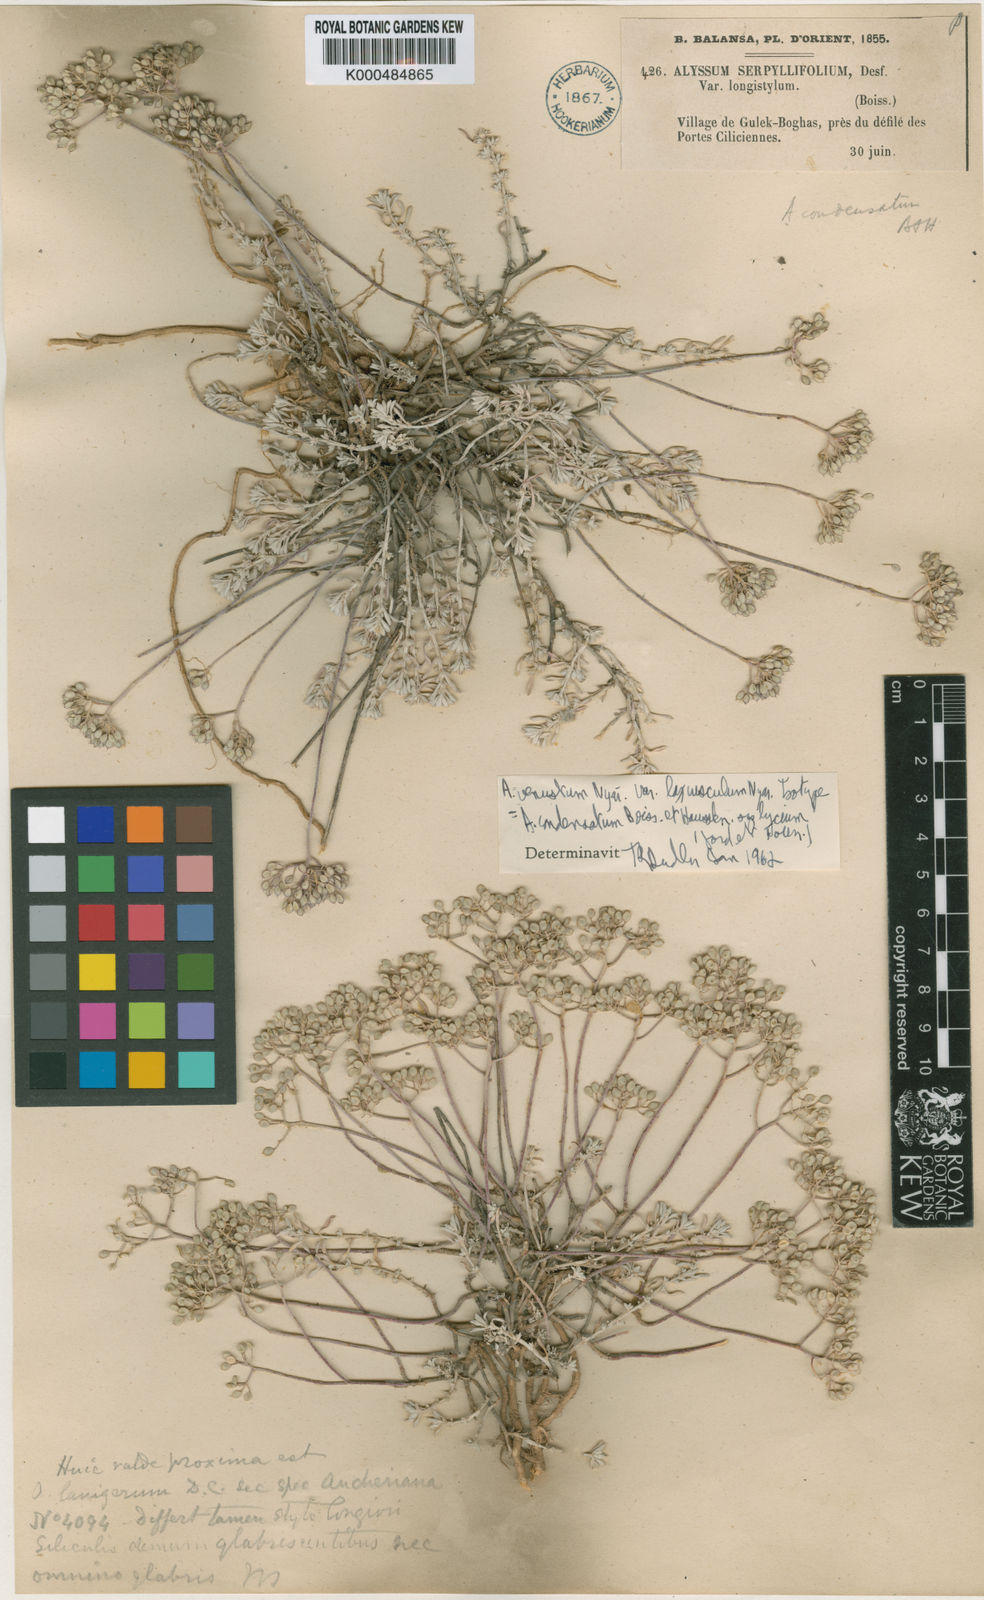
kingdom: Plantae
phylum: Tracheophyta
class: Magnoliopsida
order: Brassicales
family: Brassicaceae
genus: Odontarrhena
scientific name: Odontarrhena condensata
